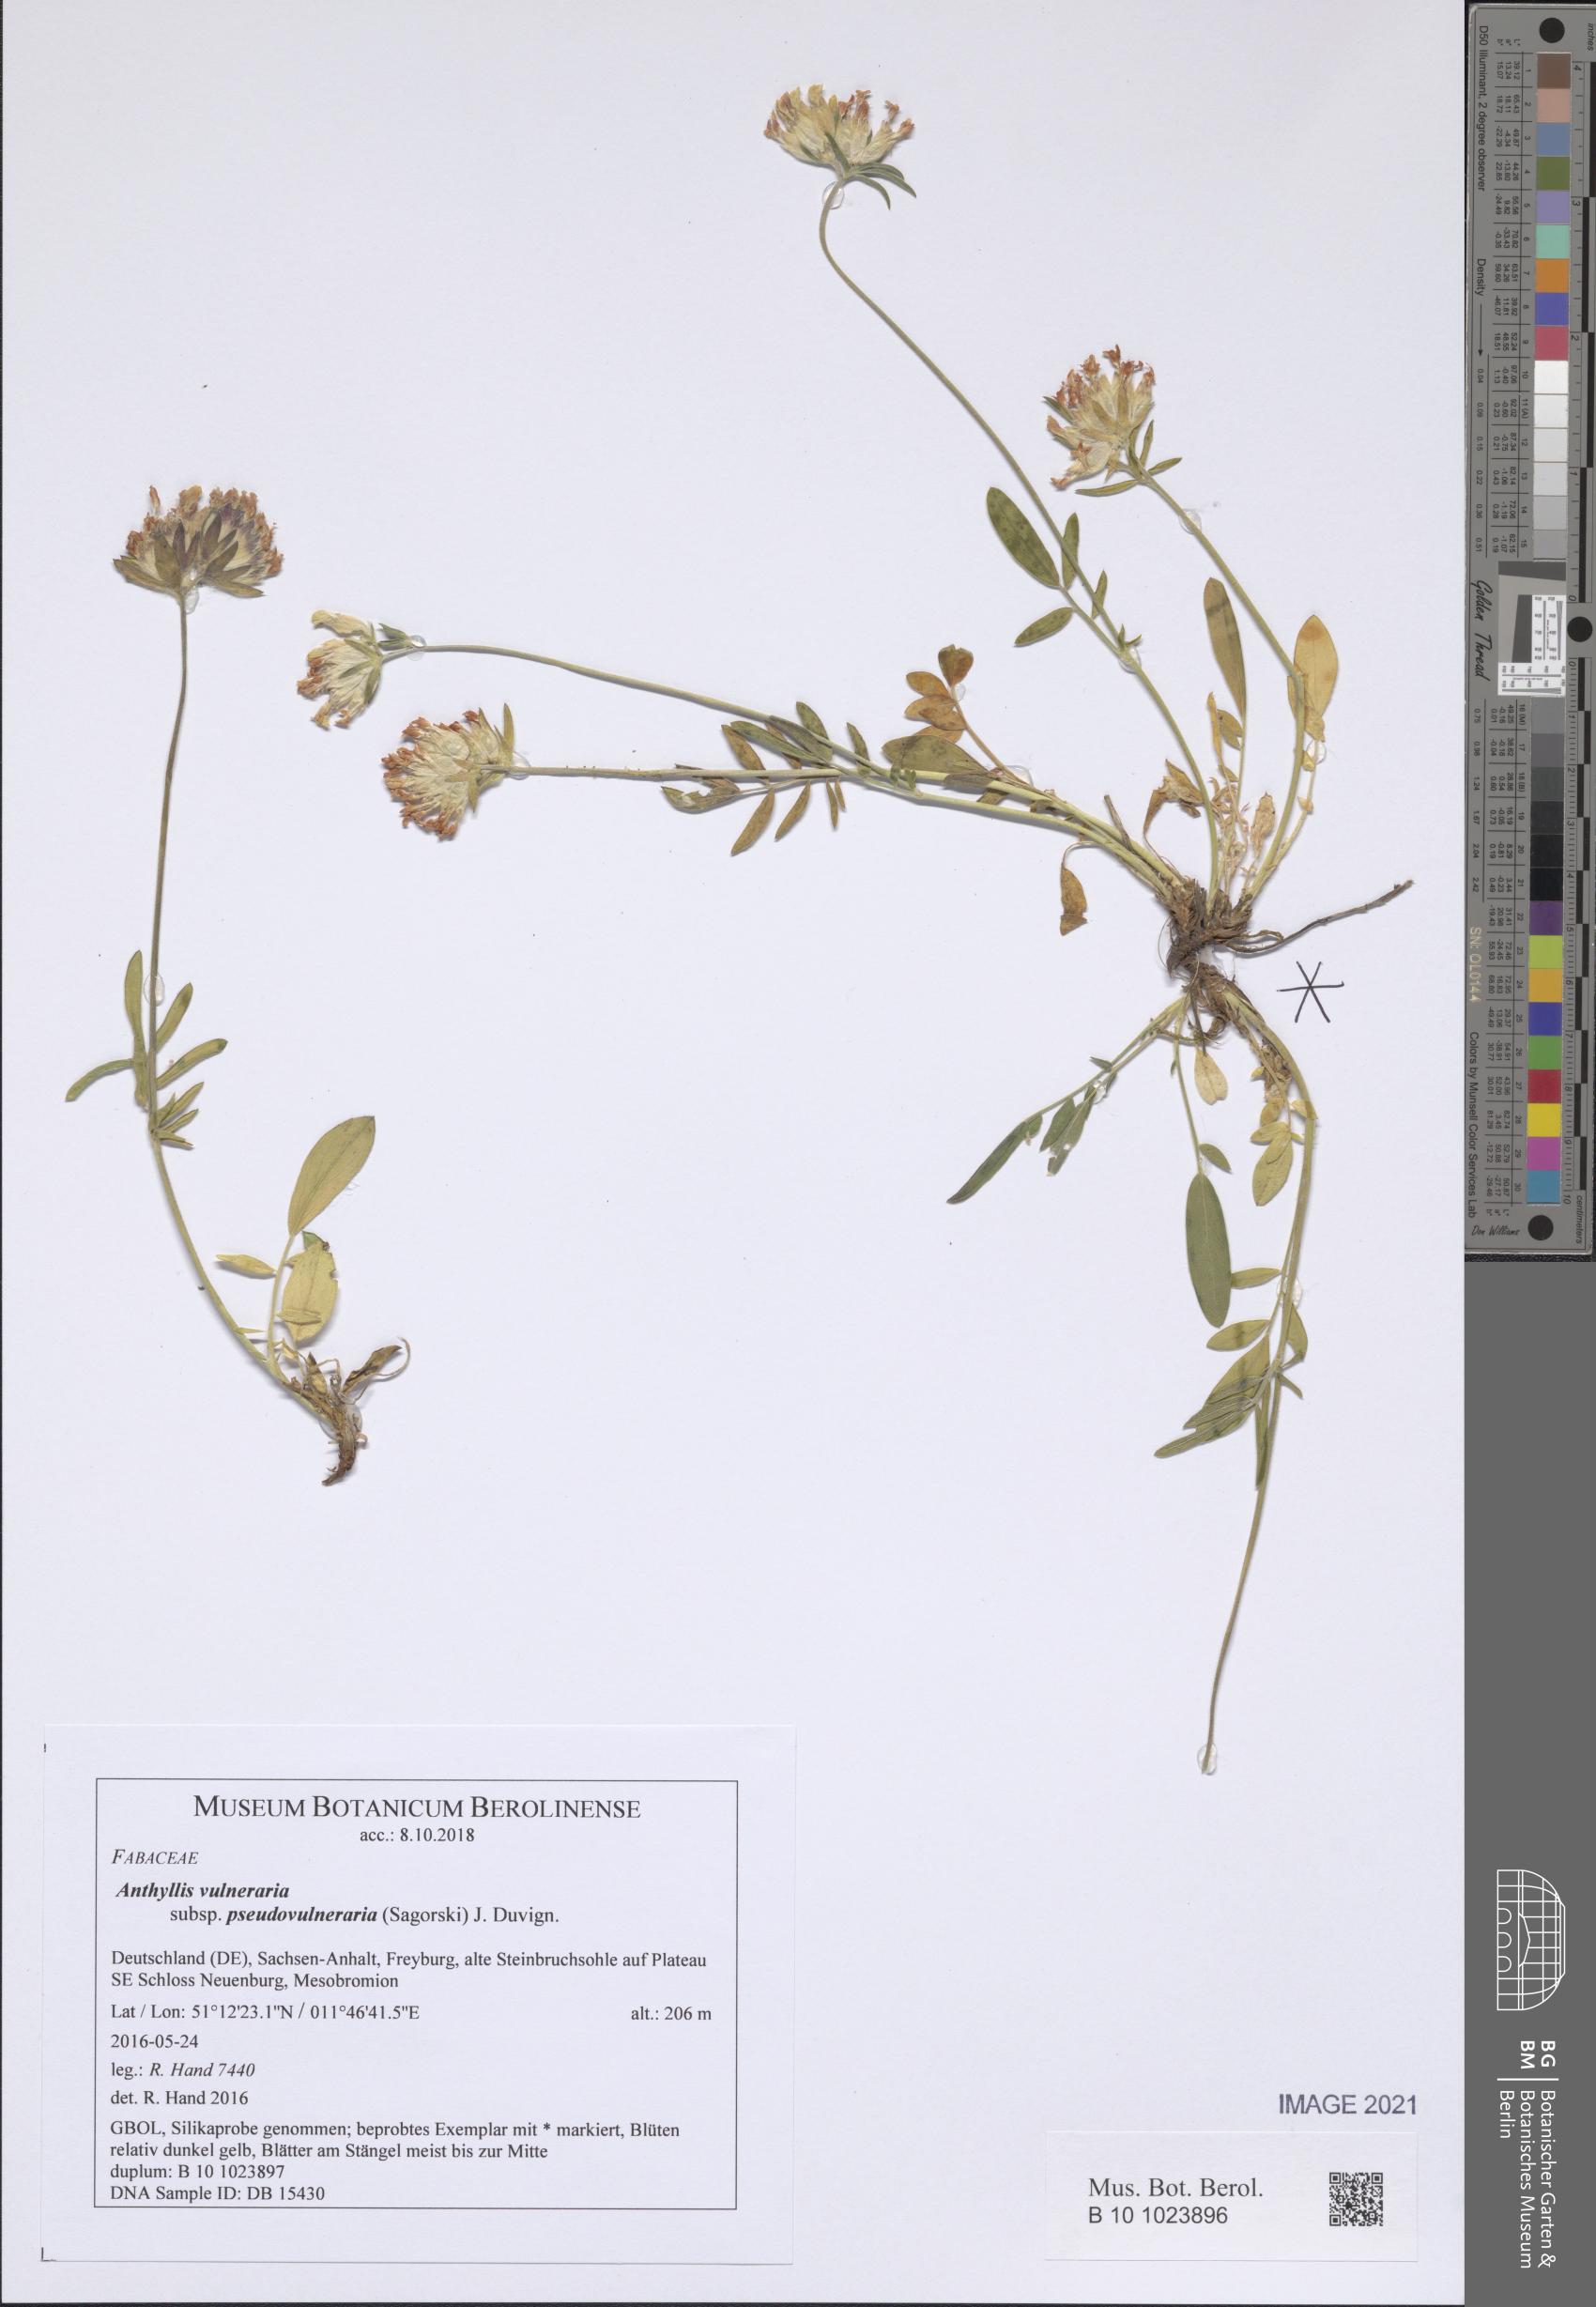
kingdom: Plantae
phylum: Tracheophyta
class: Magnoliopsida
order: Fabales
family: Fabaceae
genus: Anthyllis
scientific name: Anthyllis vulneraria
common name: Kidney vetch
